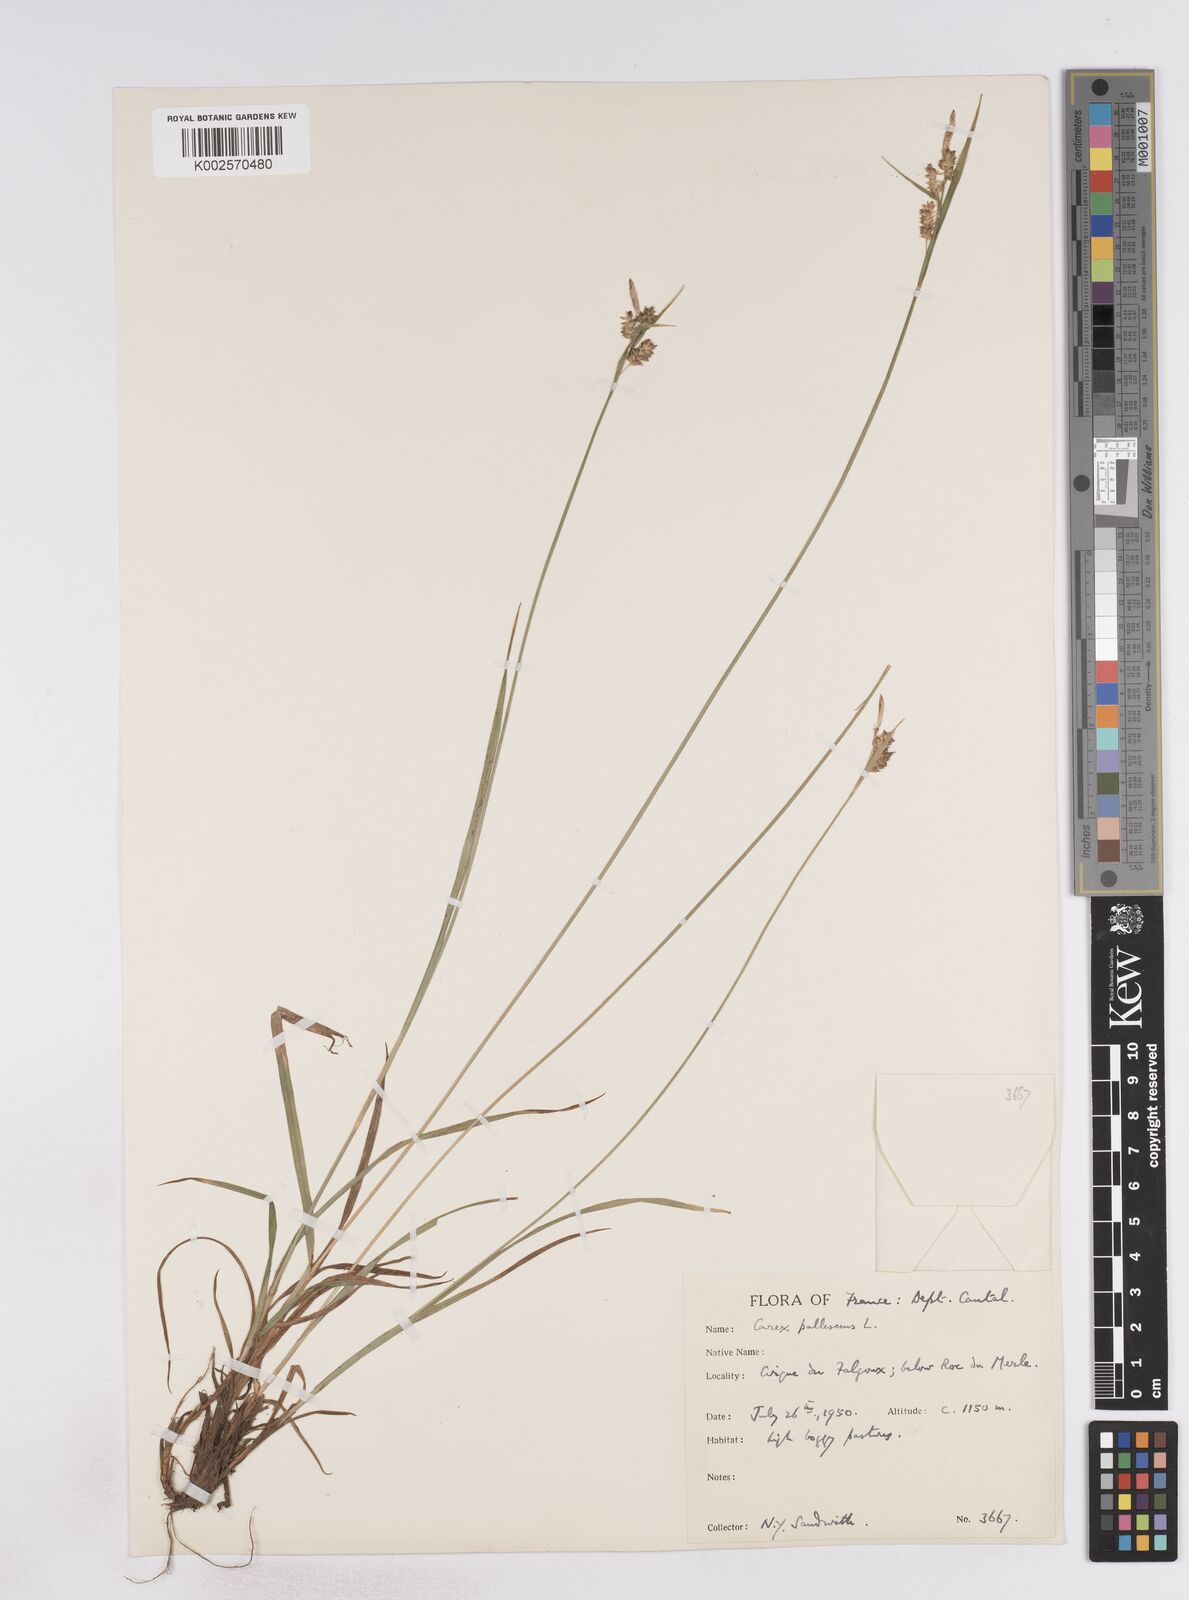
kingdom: Plantae
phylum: Tracheophyta
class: Liliopsida
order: Poales
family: Cyperaceae
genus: Carex
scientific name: Carex pallescens
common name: Pale sedge
